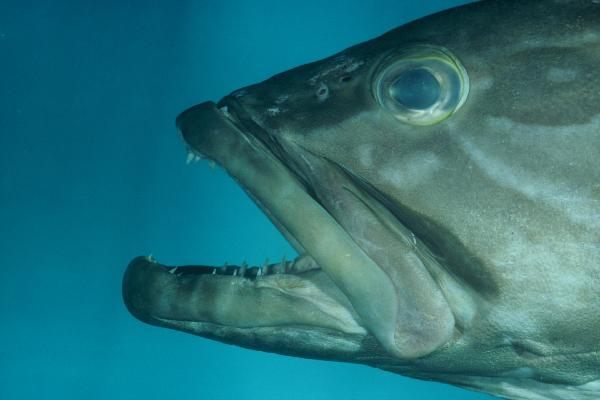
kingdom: Animalia
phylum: Chordata
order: Perciformes
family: Serranidae
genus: Epinephelus
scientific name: Epinephelus bruneus
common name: Longtooth grouper
